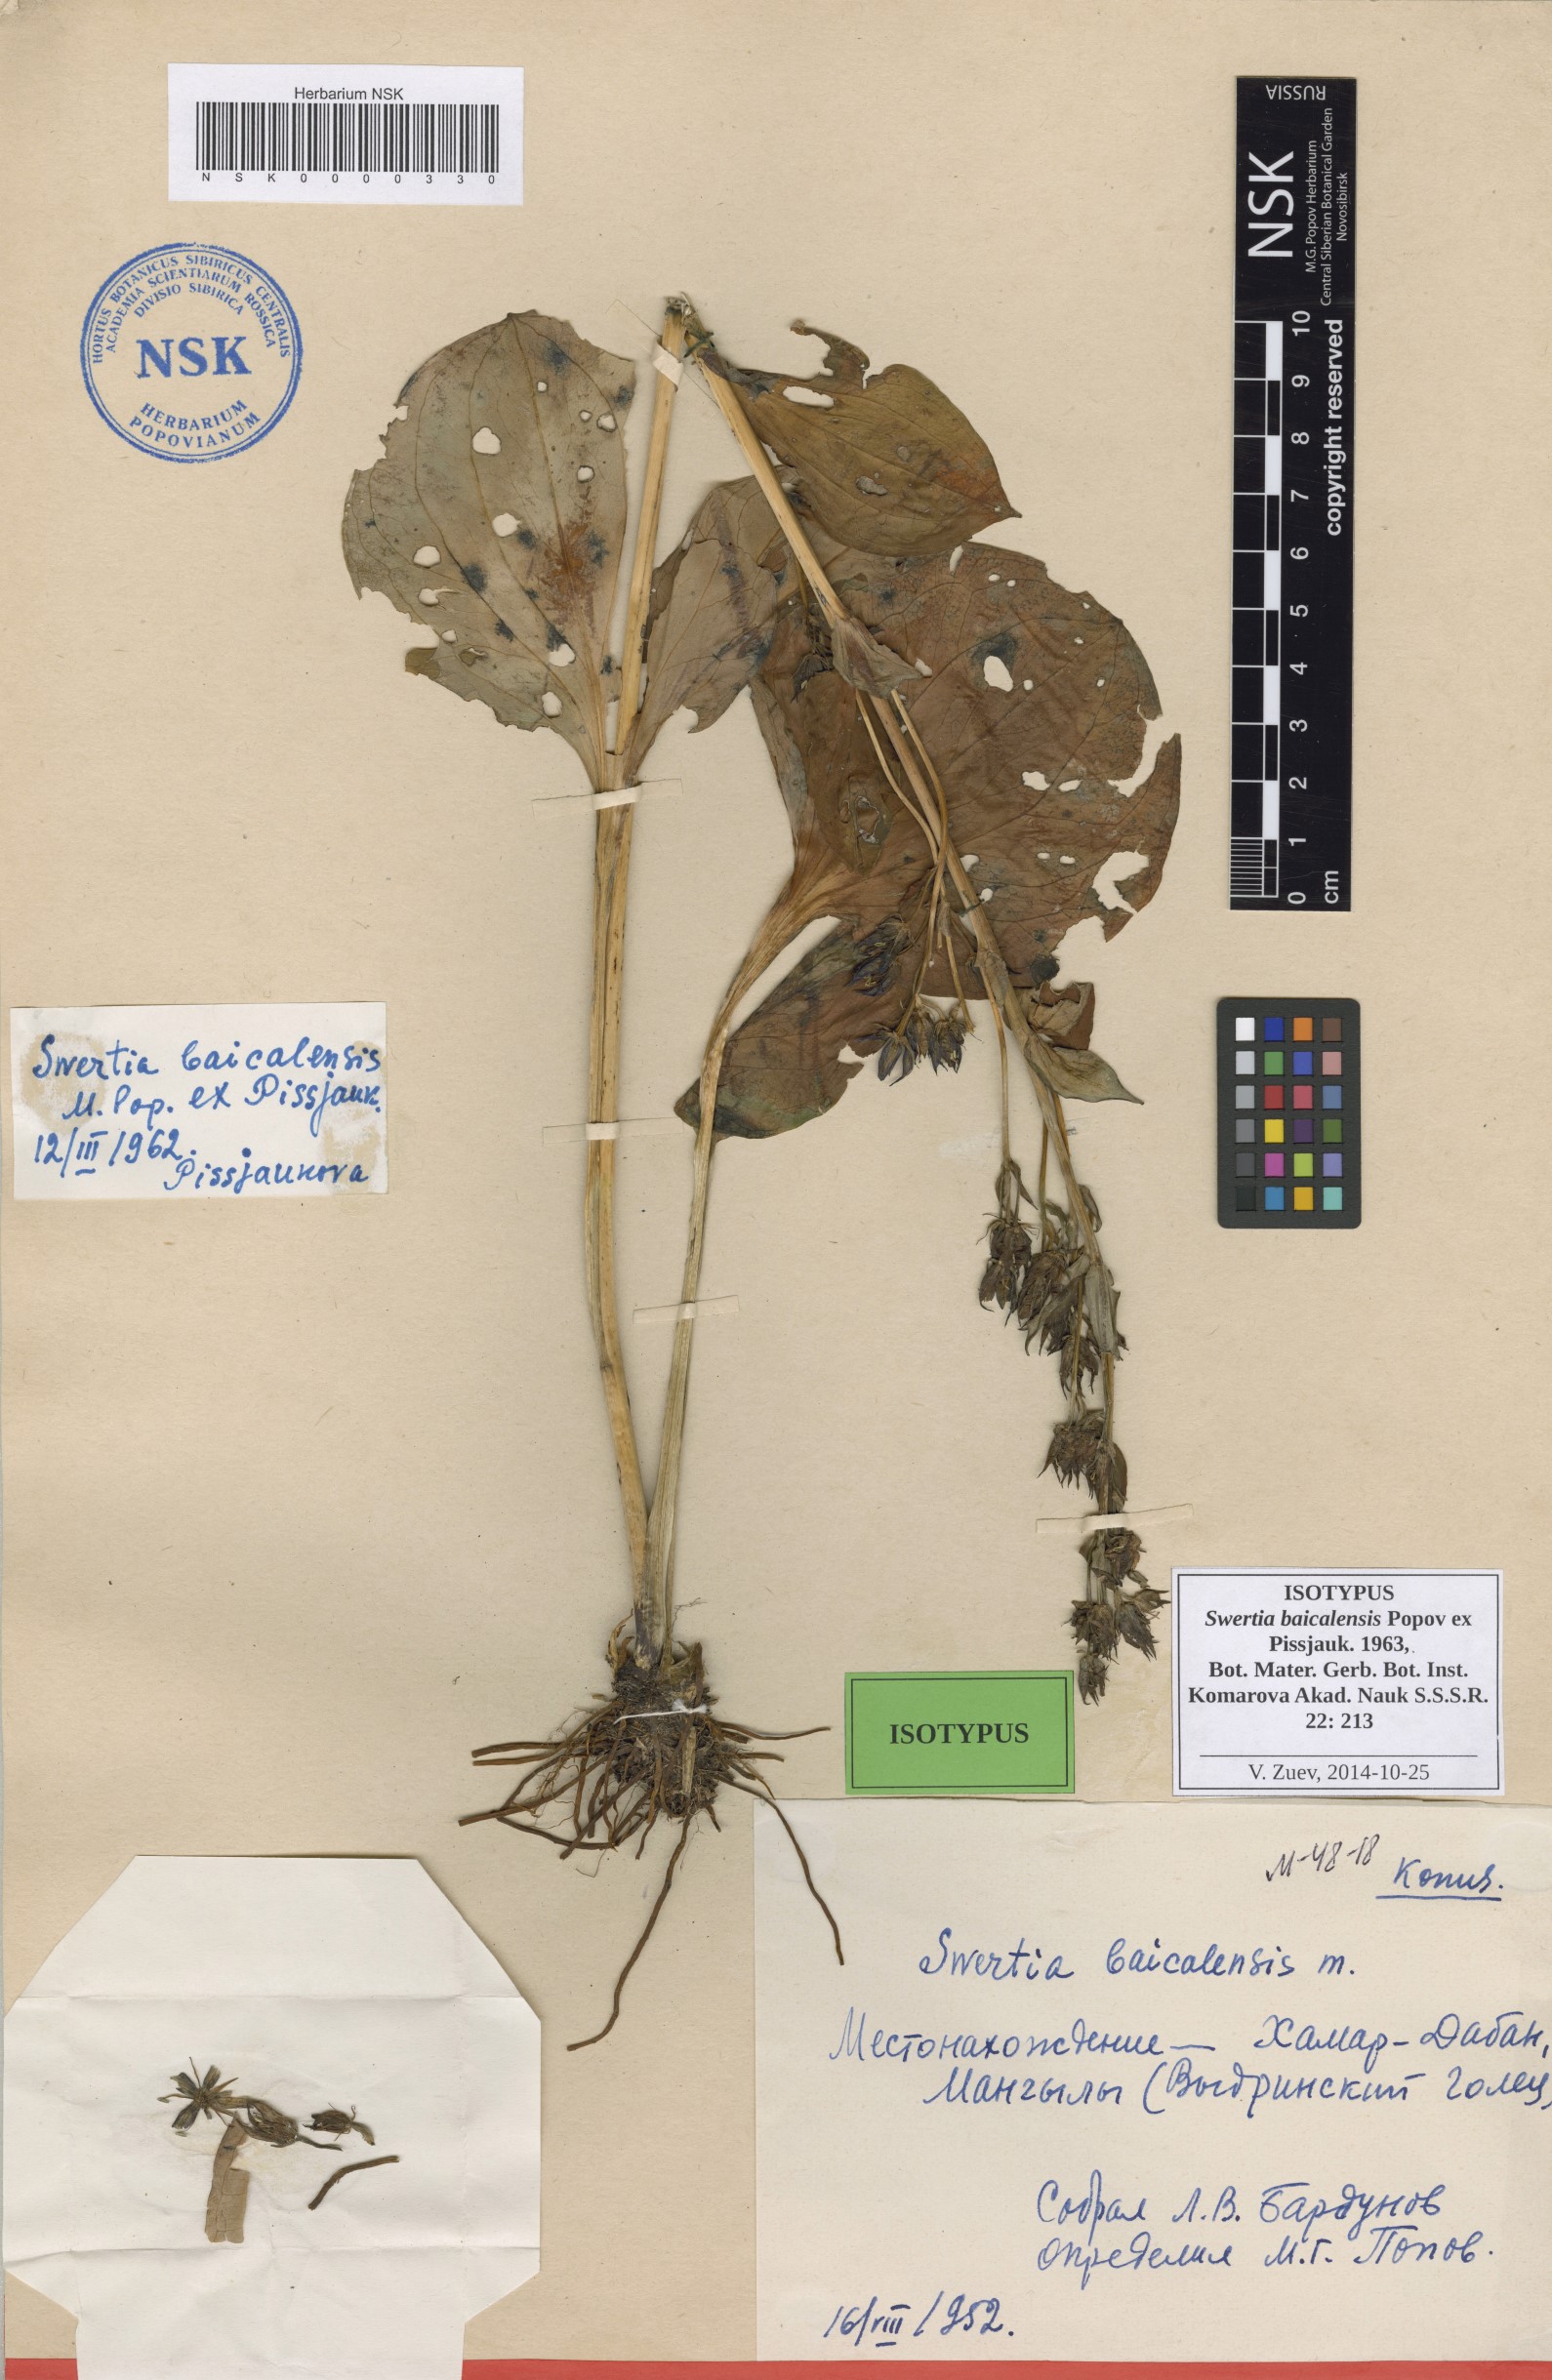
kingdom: Plantae
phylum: Tracheophyta
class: Magnoliopsida
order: Gentianales
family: Gentianaceae
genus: Swertia
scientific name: Swertia obtusa
